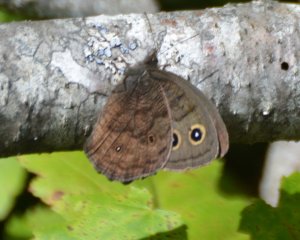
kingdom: Animalia
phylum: Arthropoda
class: Insecta
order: Lepidoptera
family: Nymphalidae
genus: Cercyonis
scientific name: Cercyonis pegala
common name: Common Wood-Nymph
